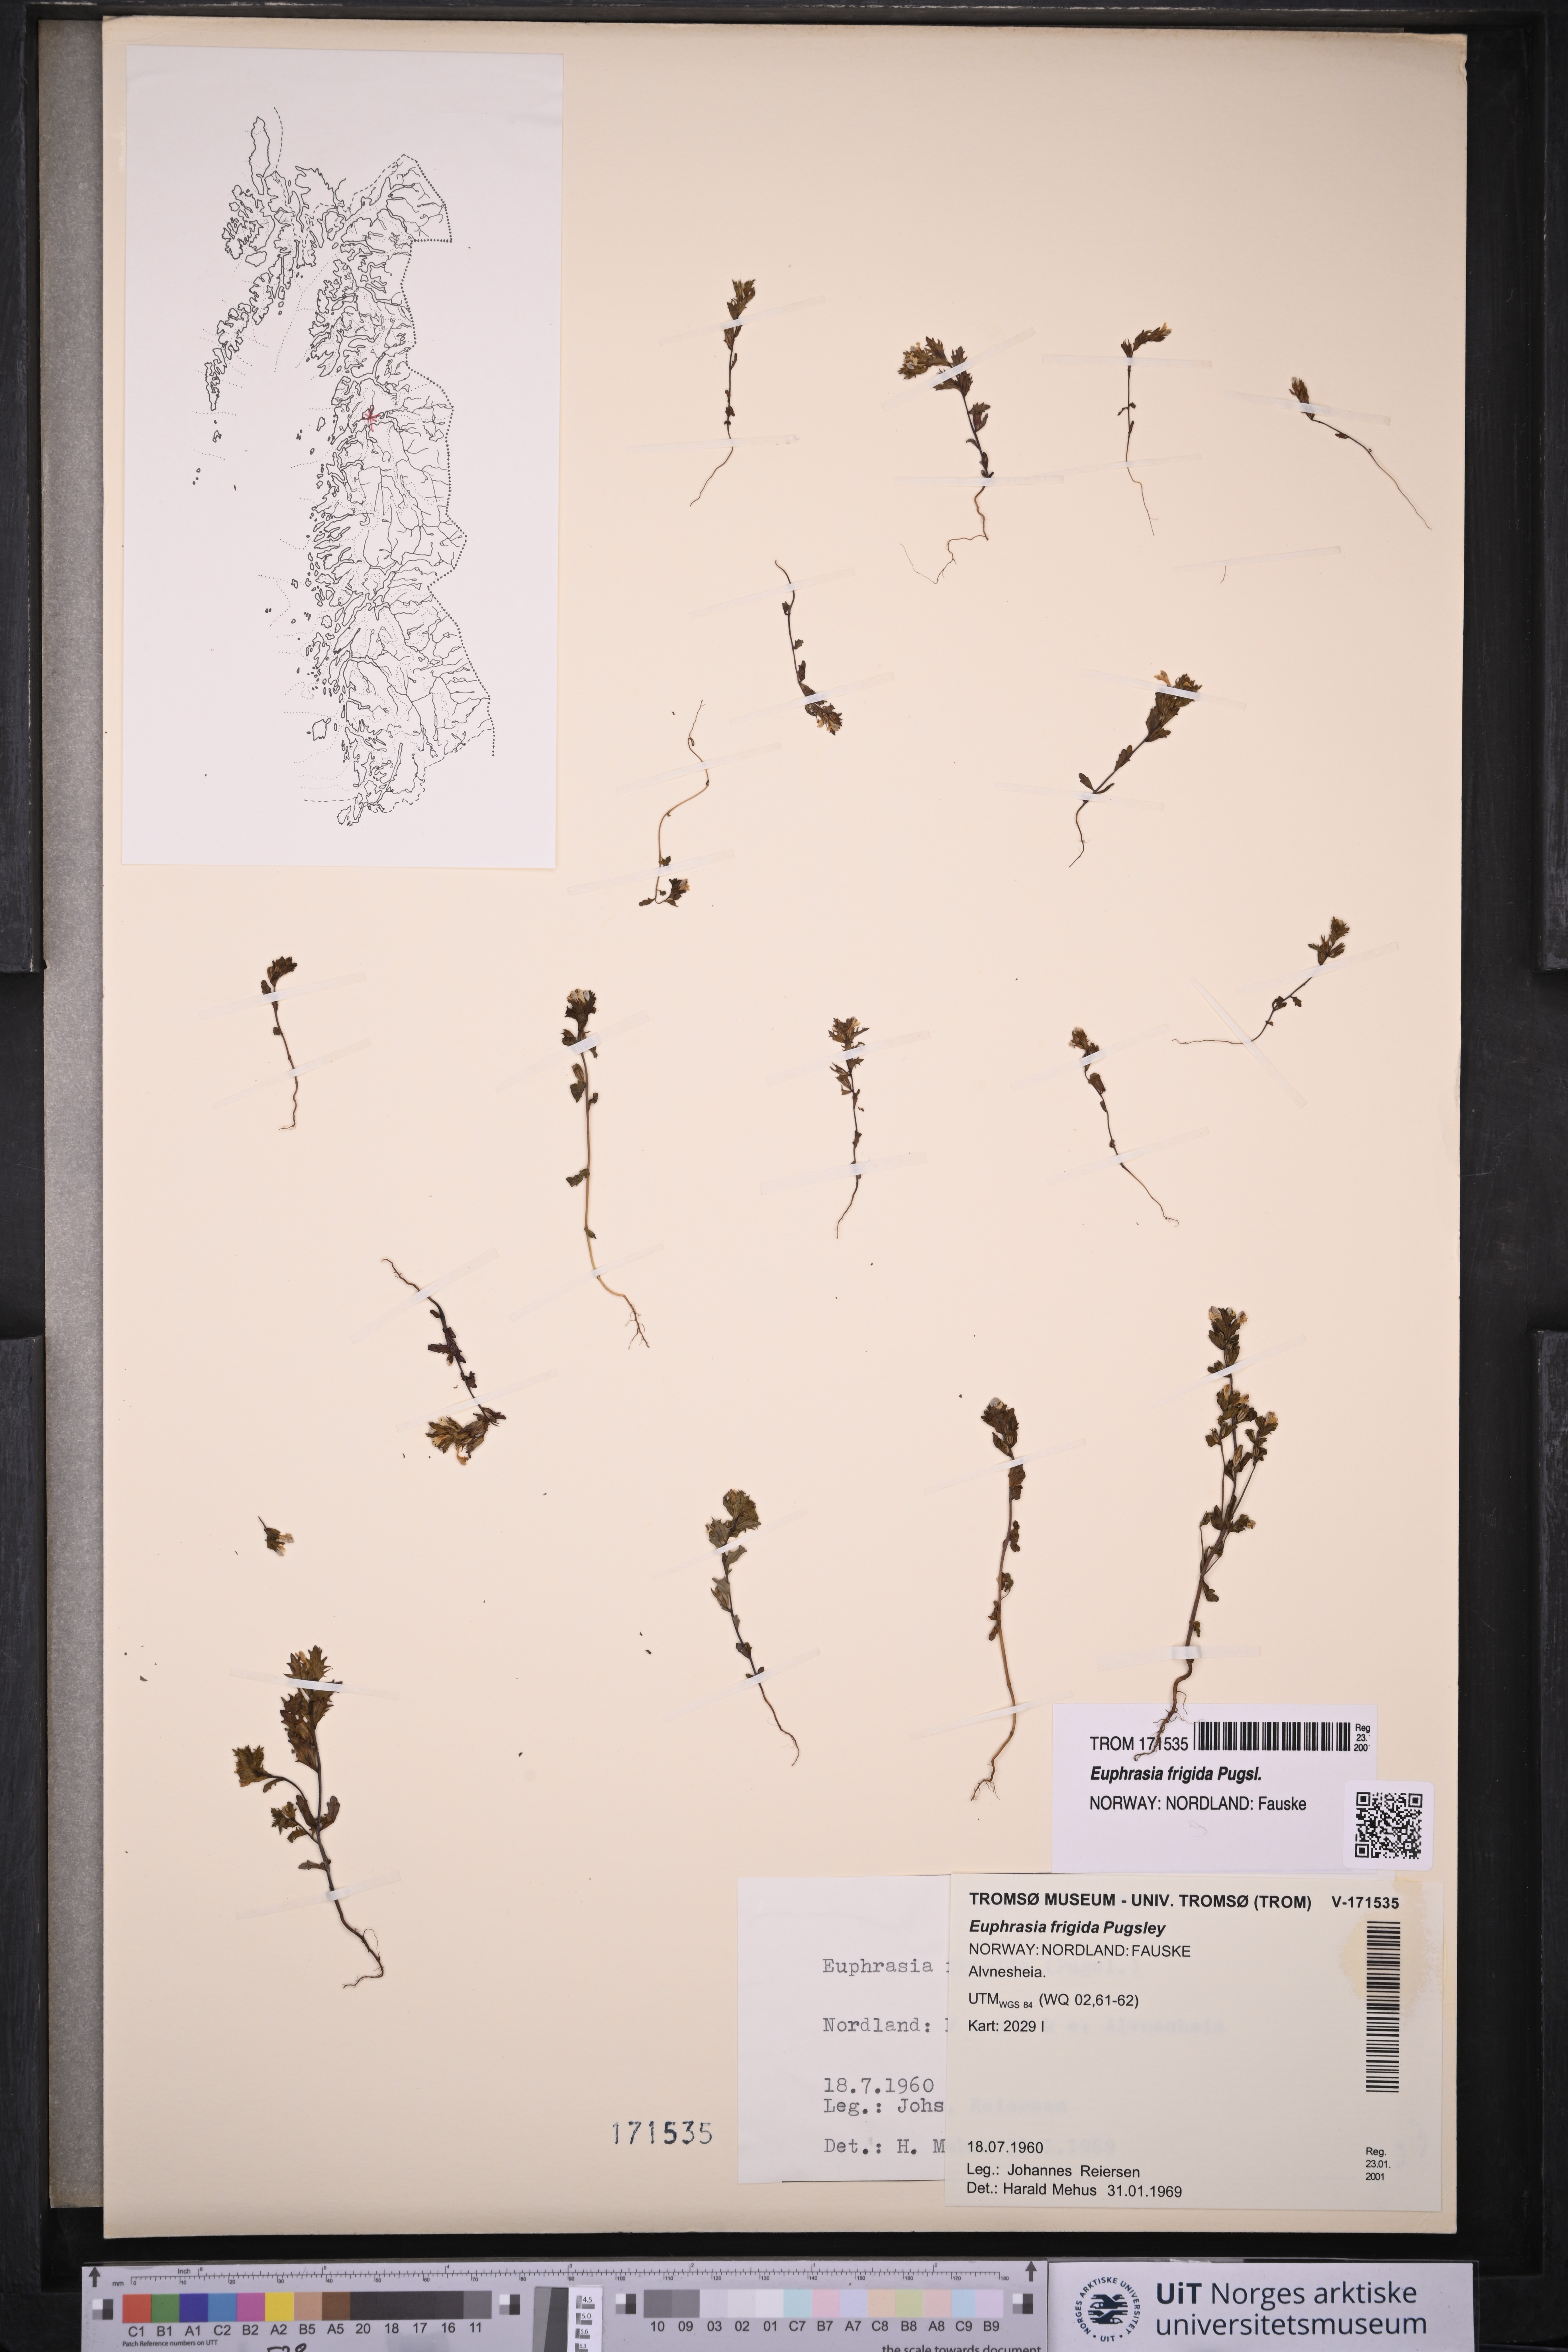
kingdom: Plantae
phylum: Tracheophyta
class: Magnoliopsida
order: Lamiales
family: Orobanchaceae
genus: Euphrasia
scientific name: Euphrasia frigida
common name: An eyebright
